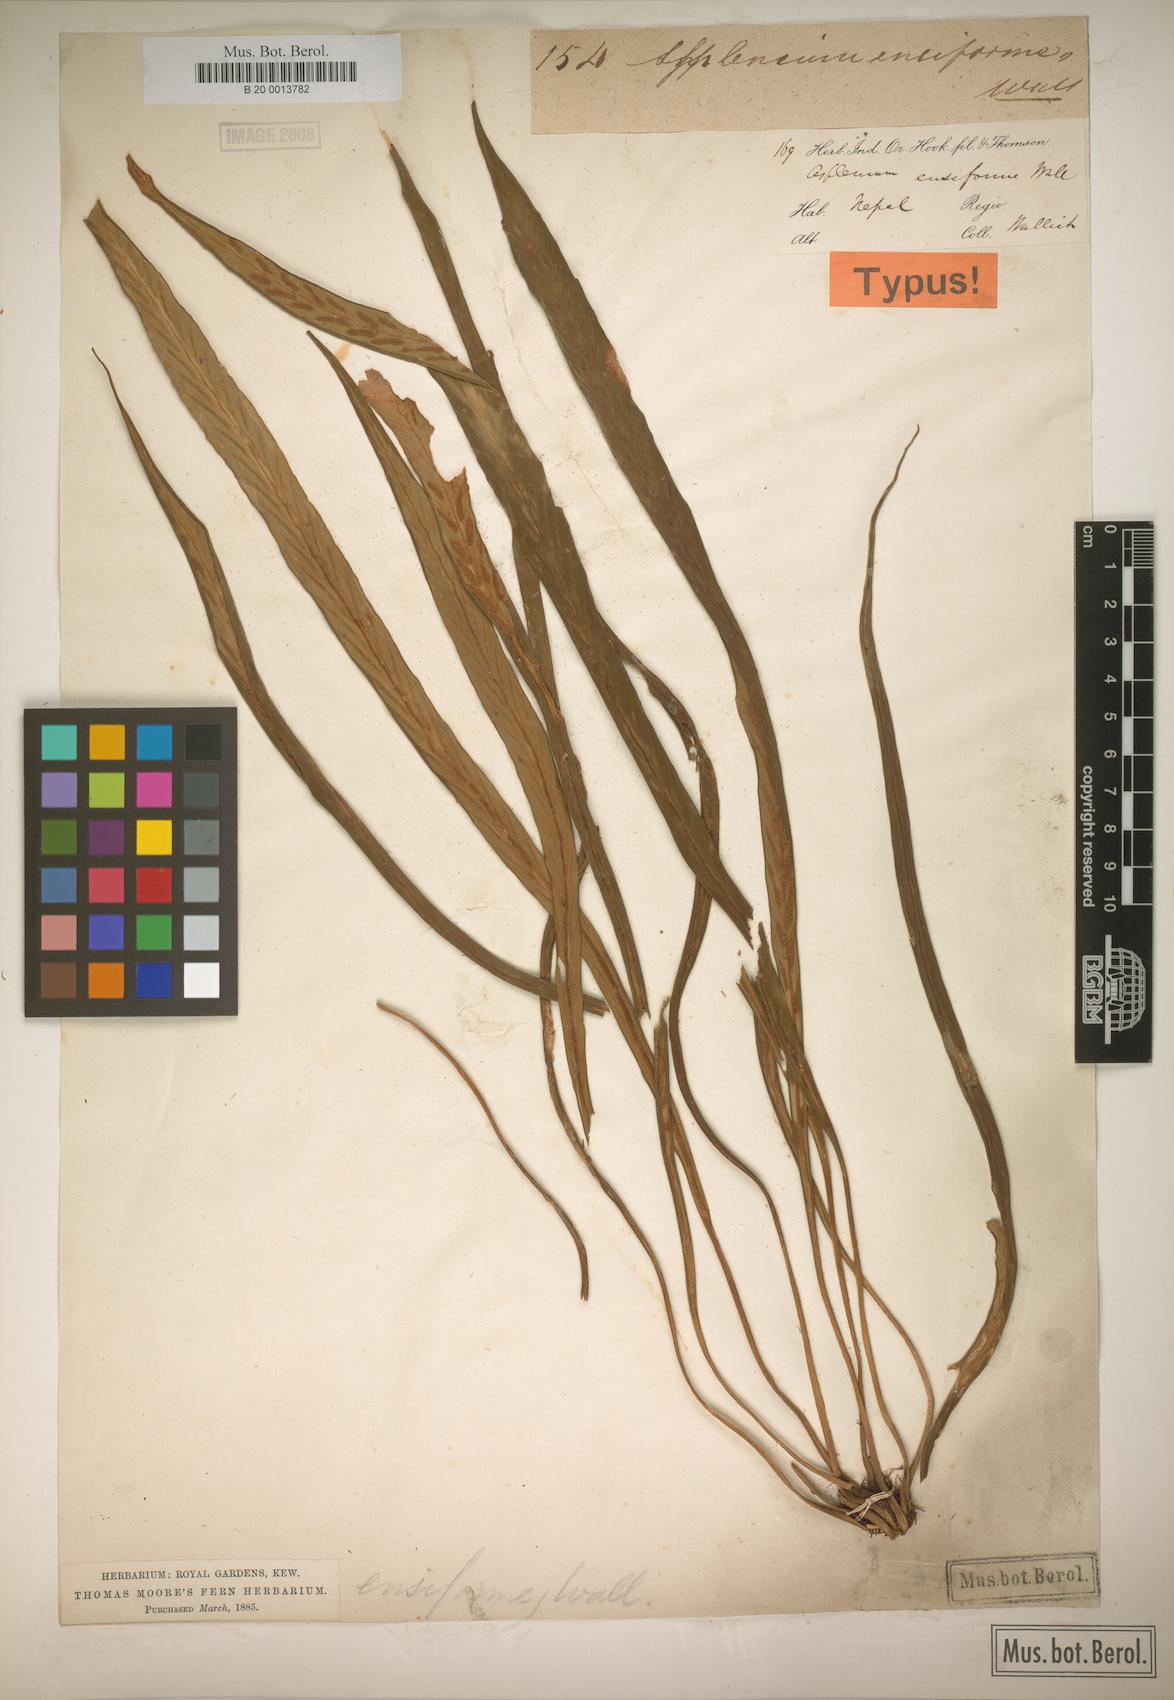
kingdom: Plantae
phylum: Tracheophyta
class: Polypodiopsida
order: Polypodiales
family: Aspleniaceae
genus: Asplenium
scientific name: Asplenium ensiforme
